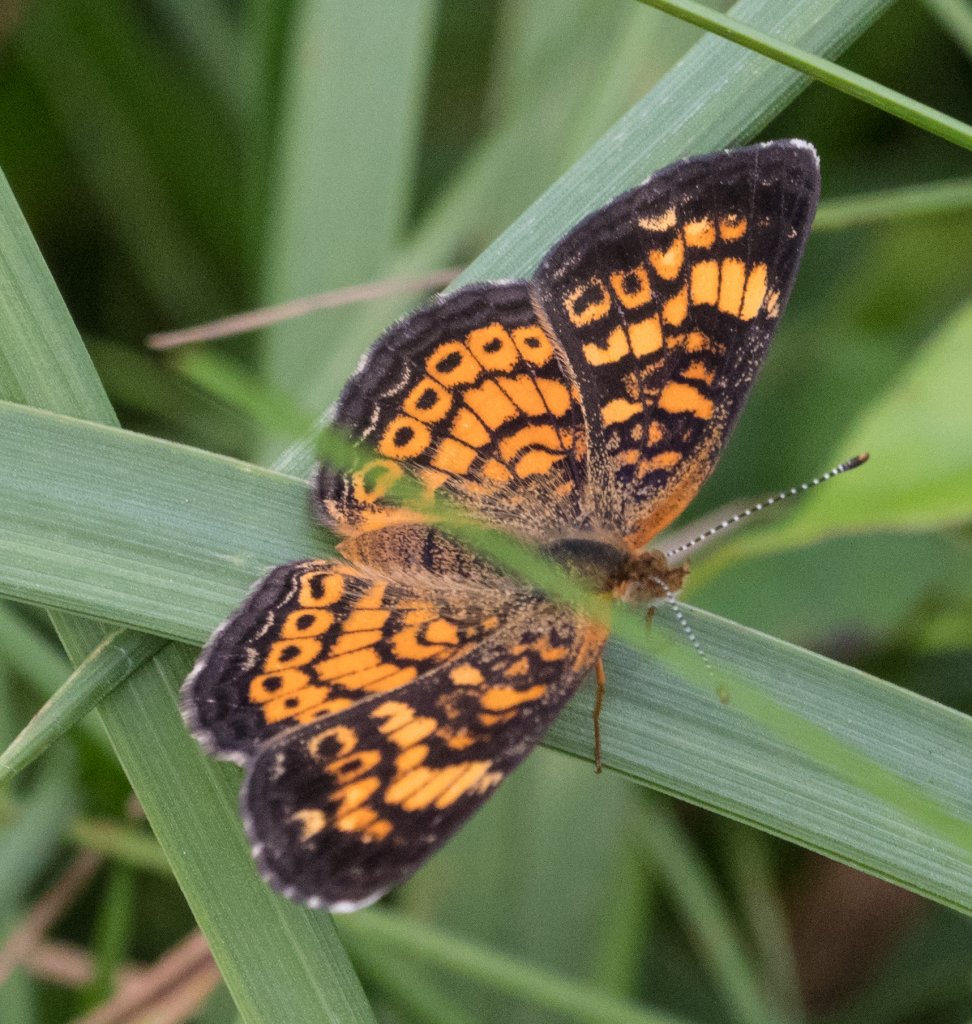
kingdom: Animalia
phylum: Arthropoda
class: Insecta
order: Lepidoptera
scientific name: Lepidoptera
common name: Butterflies
